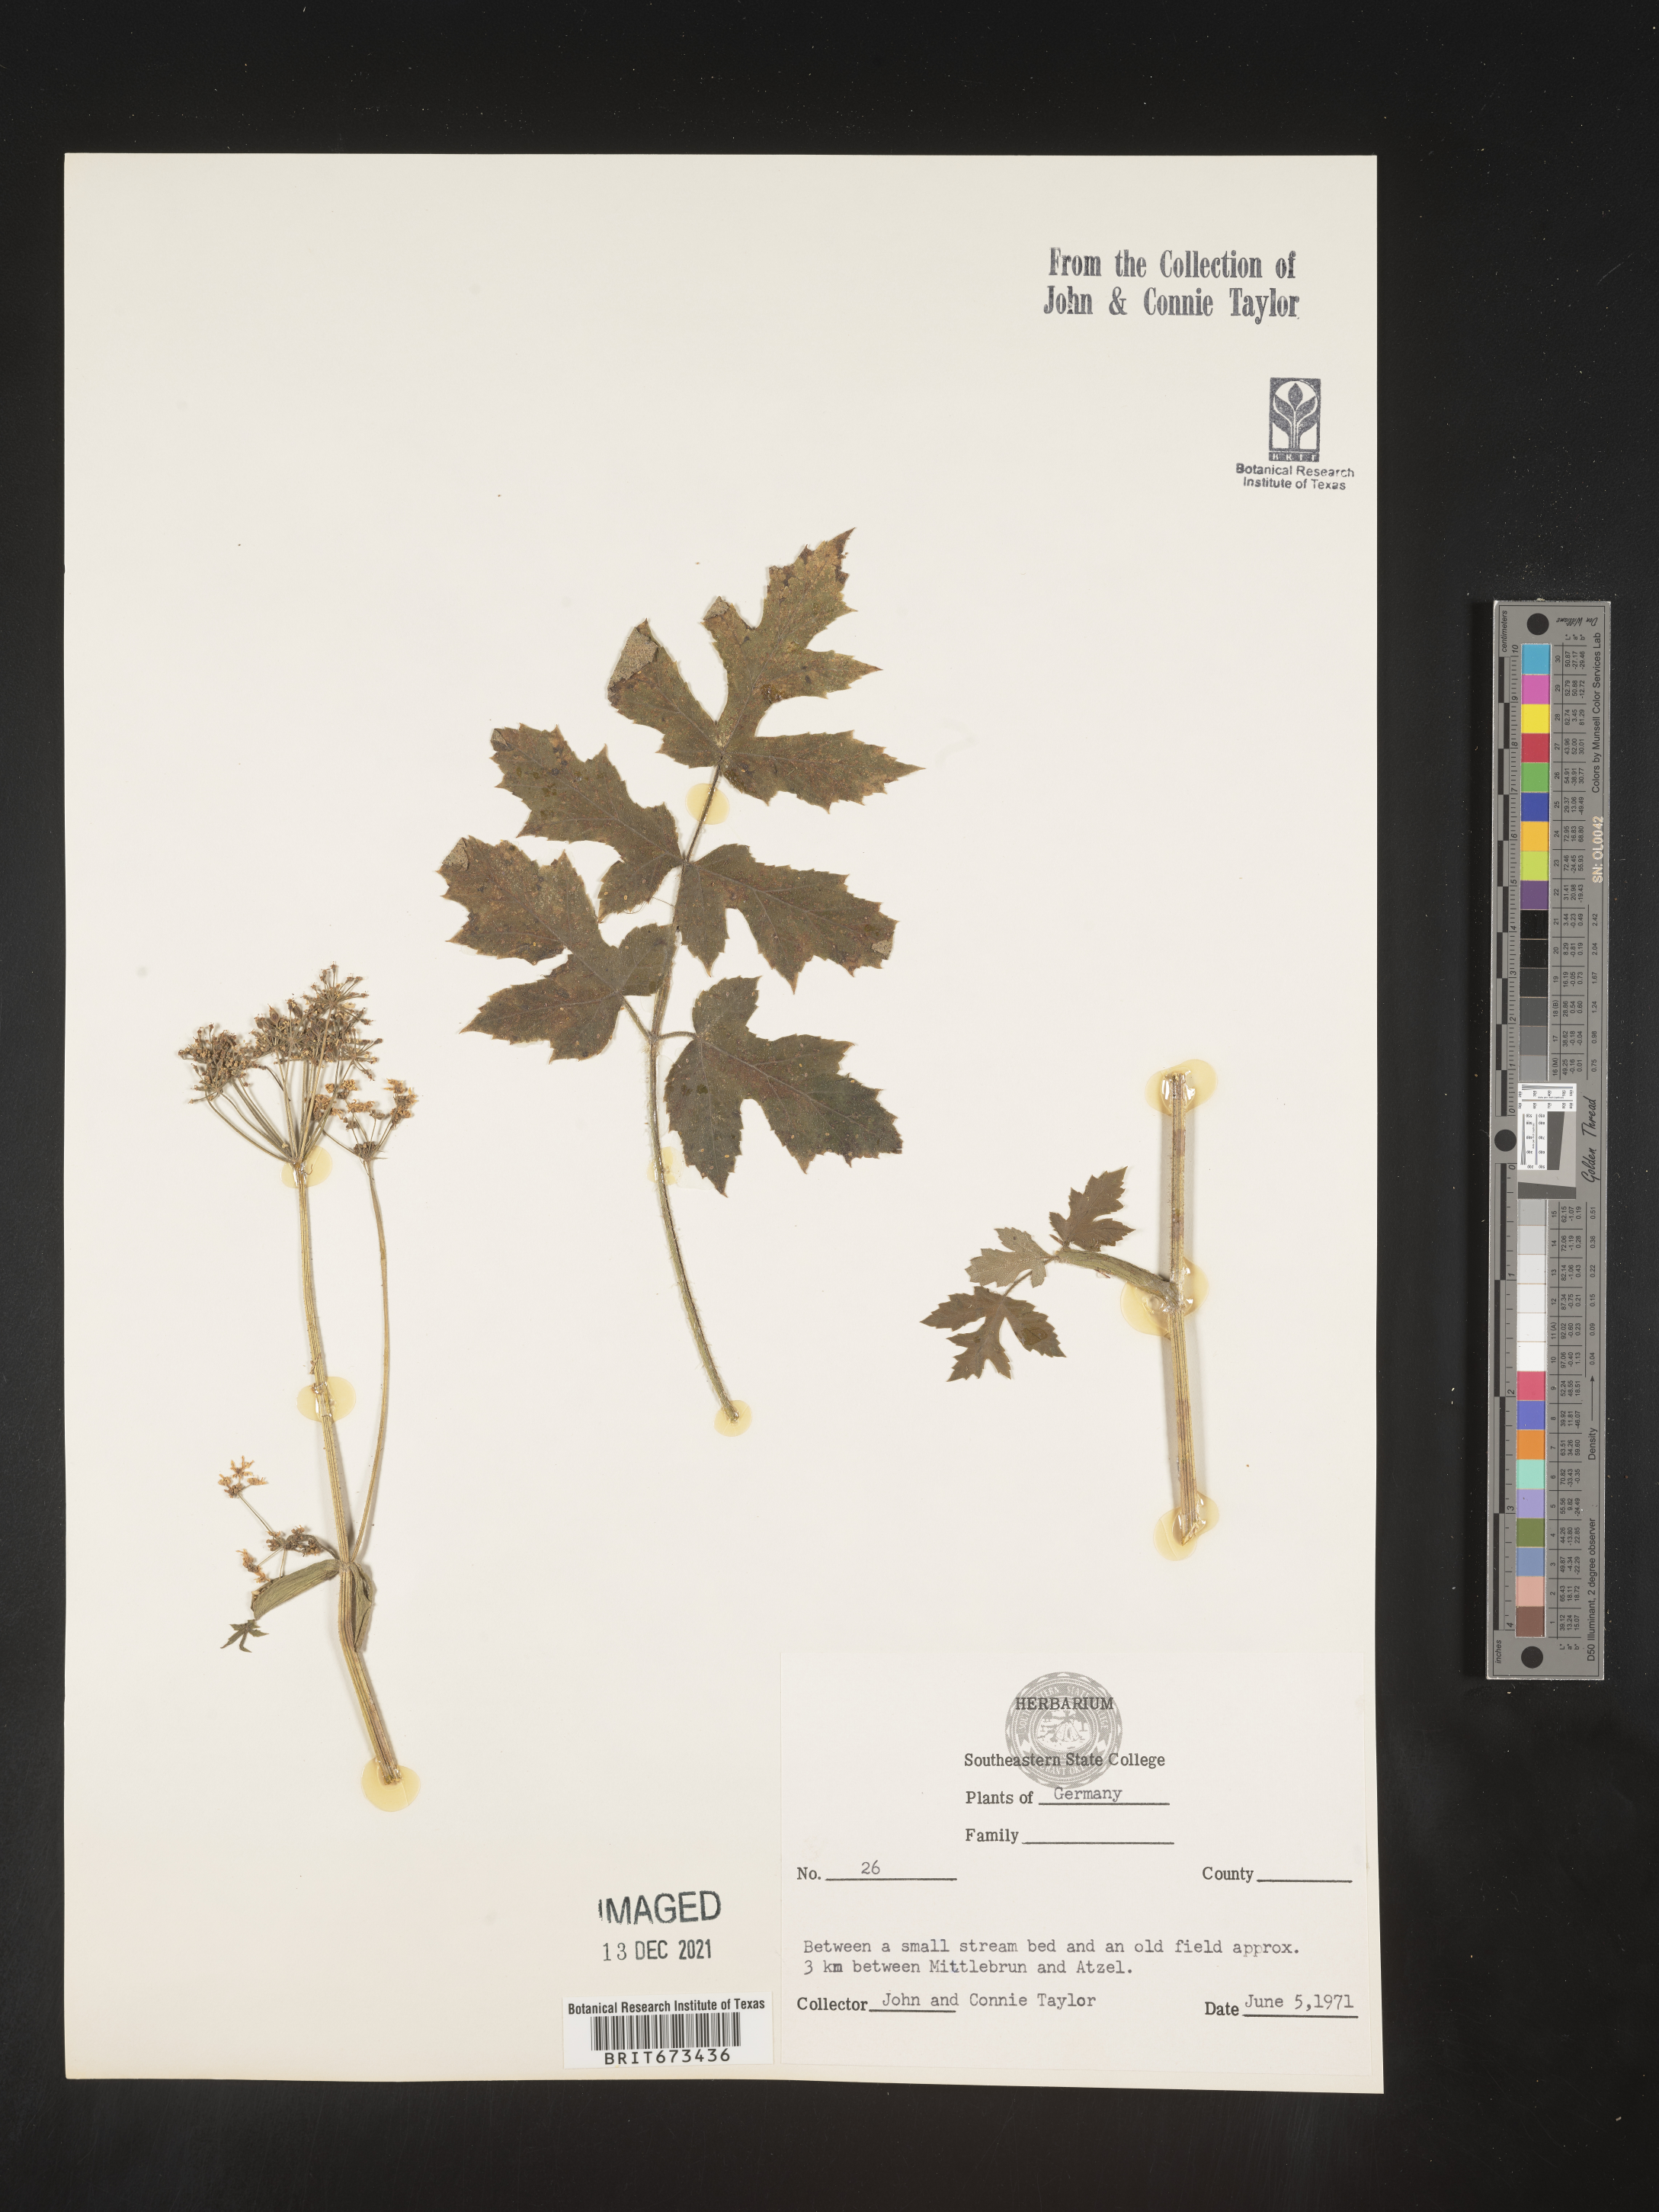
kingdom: Plantae
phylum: Tracheophyta
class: Magnoliopsida
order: Apiales
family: Apiaceae
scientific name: Apiaceae
